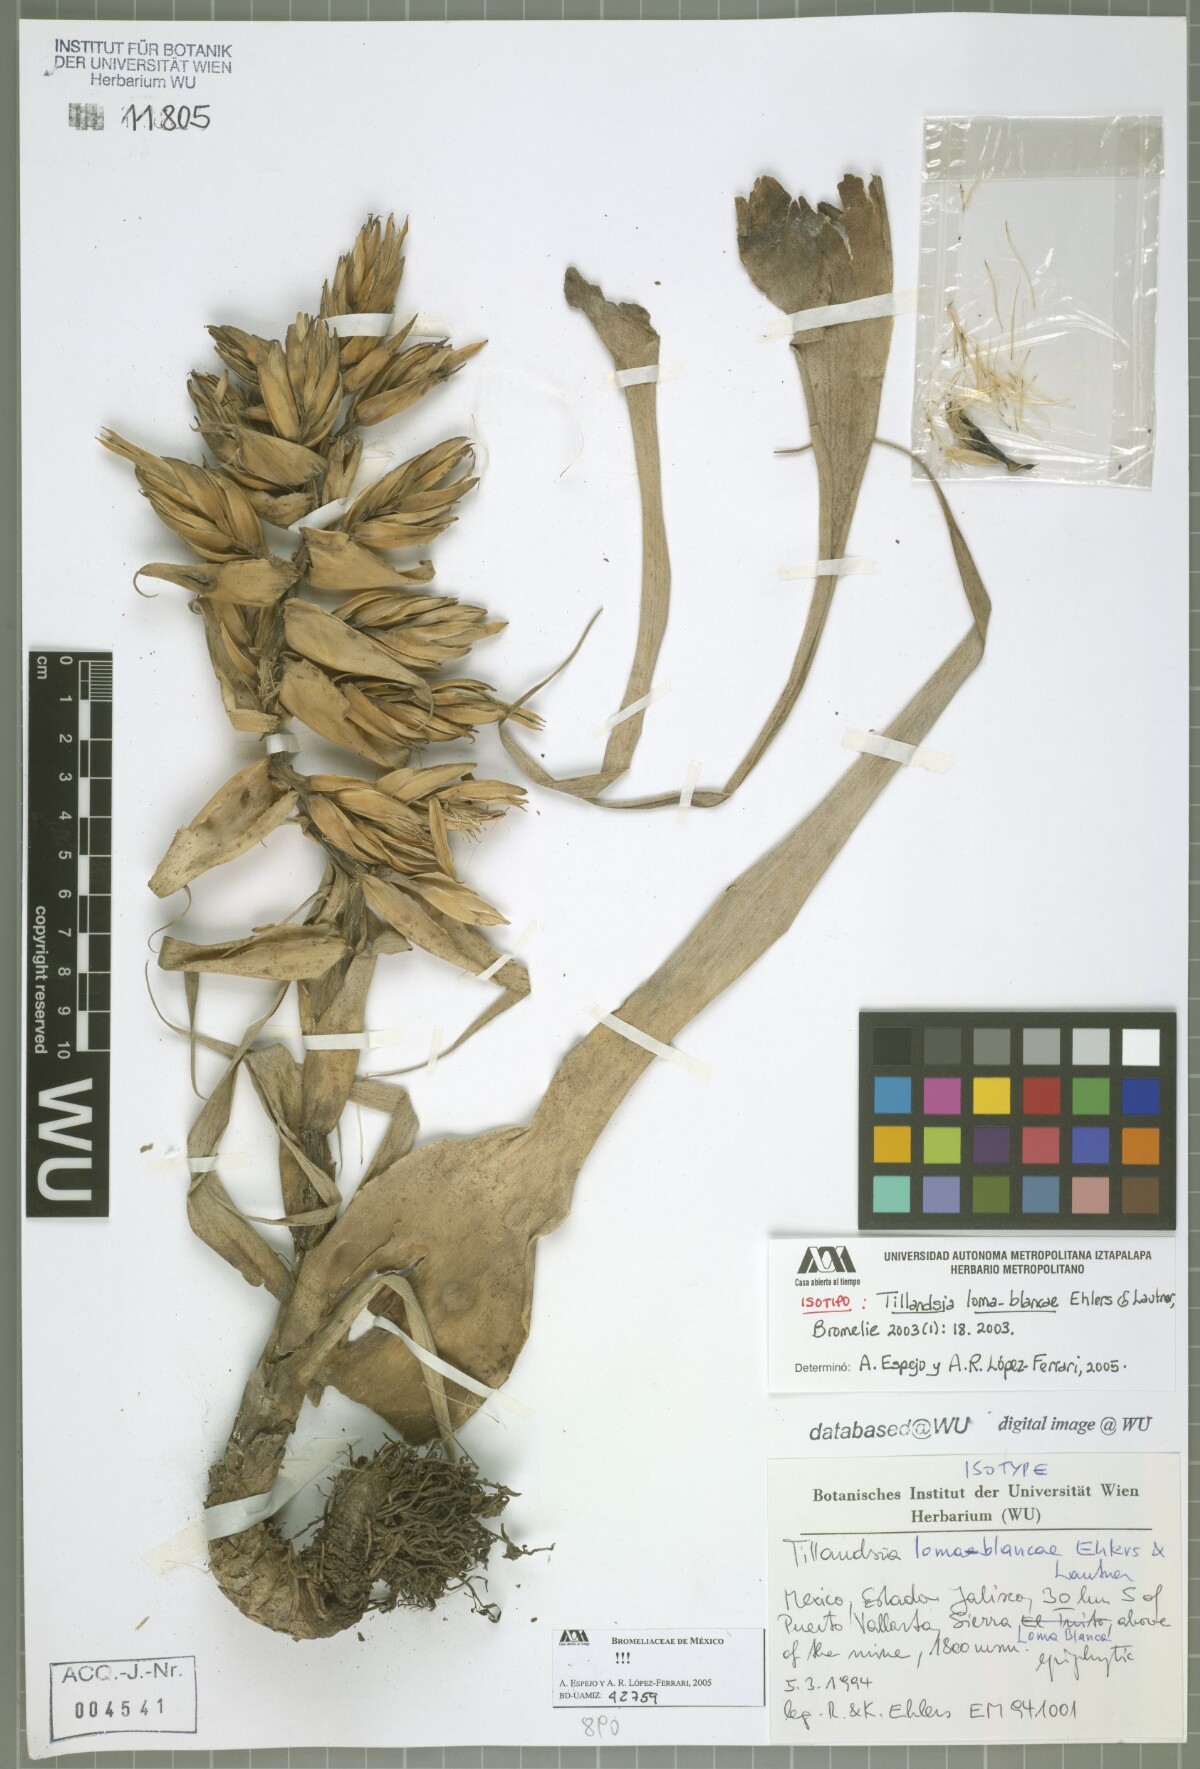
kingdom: Plantae
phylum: Tracheophyta
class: Liliopsida
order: Poales
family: Bromeliaceae
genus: Tillandsia
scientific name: Tillandsia loma-blancae
